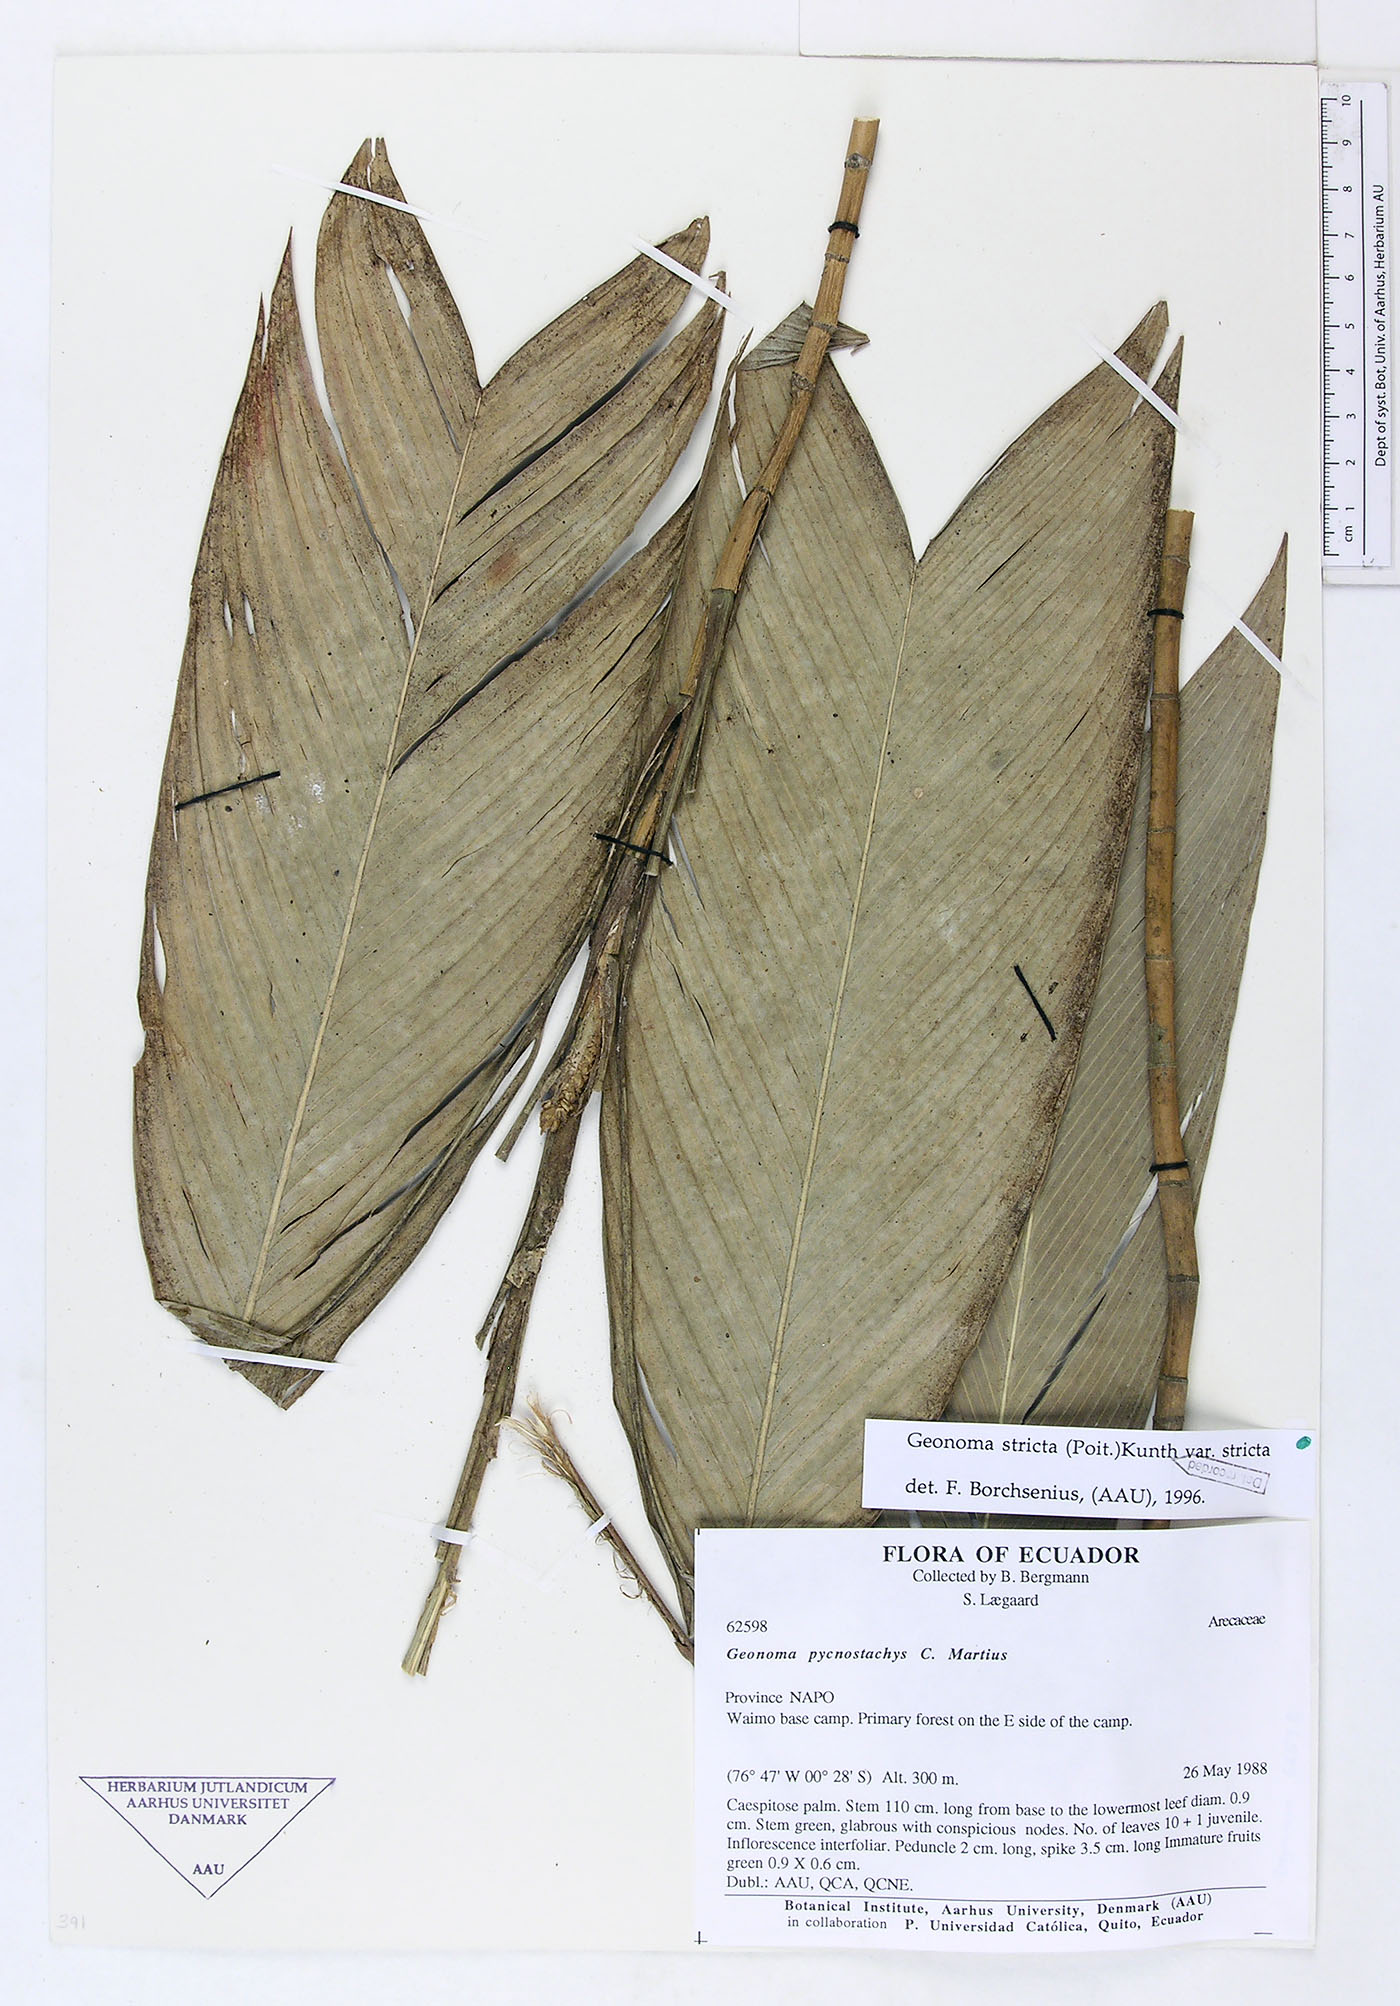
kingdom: Plantae
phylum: Tracheophyta
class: Liliopsida
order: Arecales
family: Arecaceae
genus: Geonoma
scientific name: Geonoma stricta
